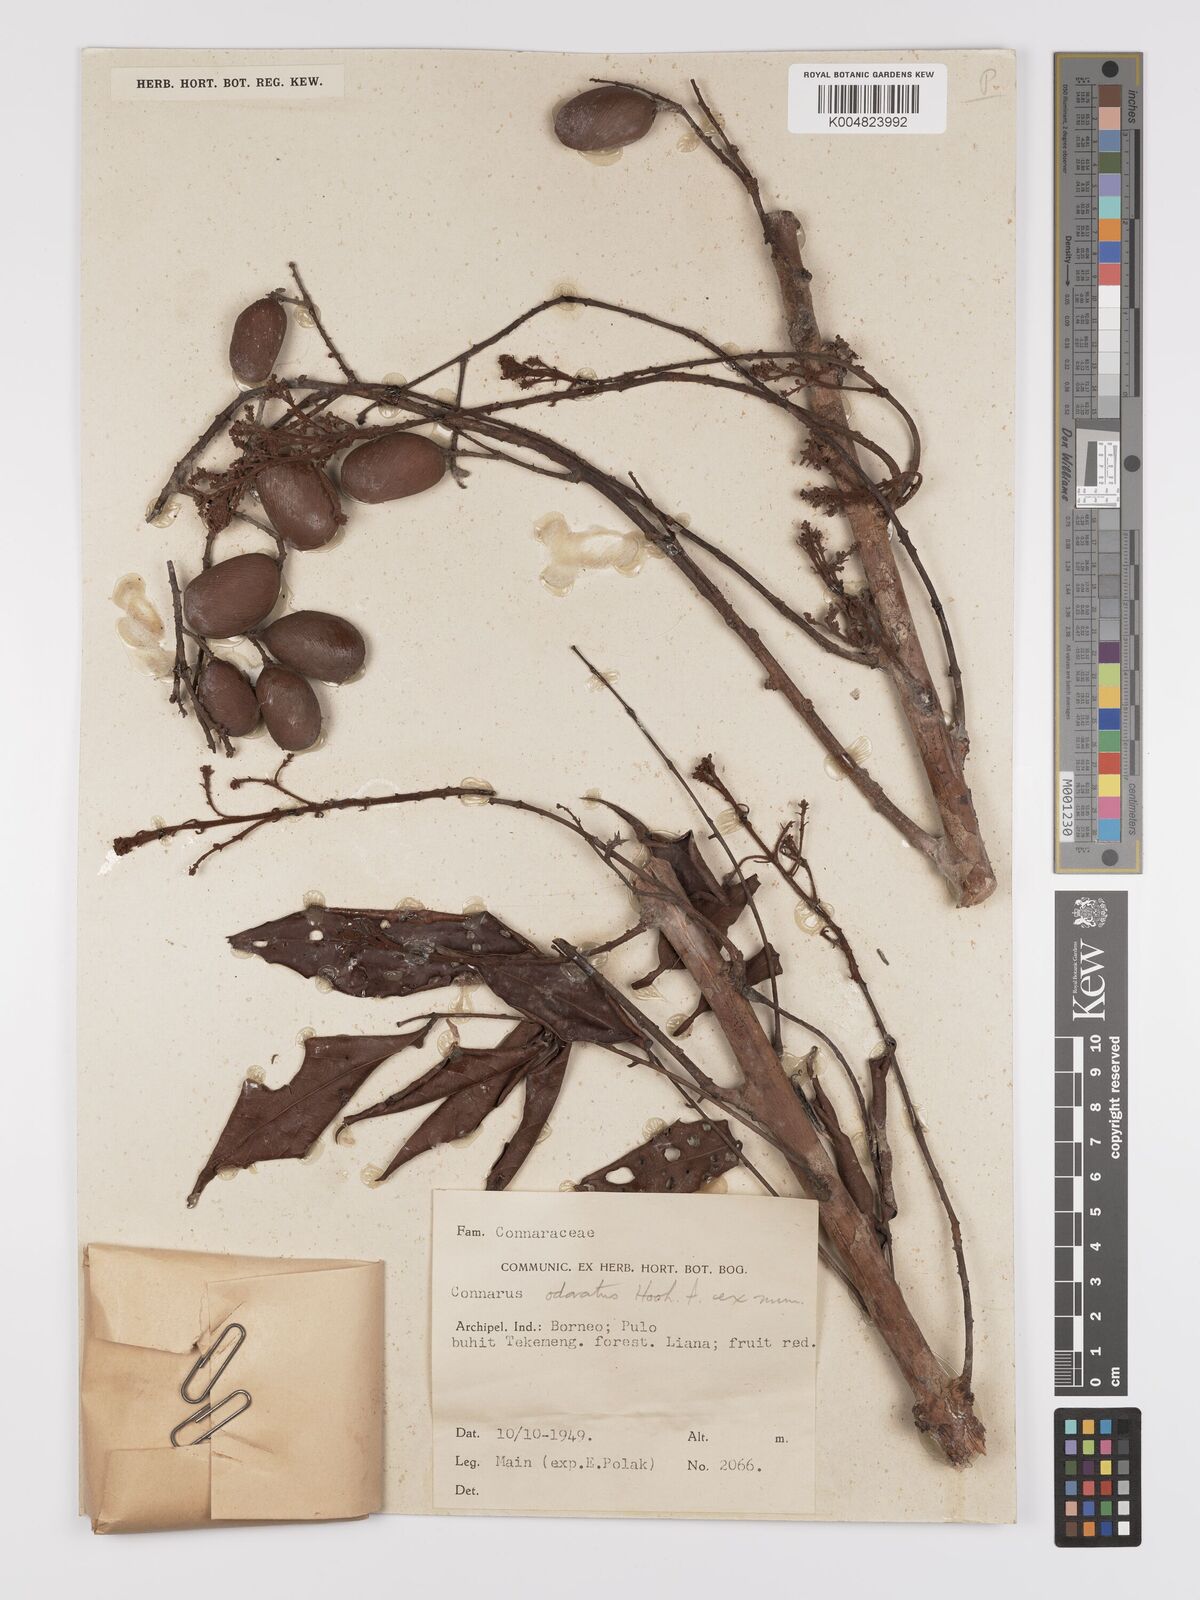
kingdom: Plantae
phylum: Tracheophyta
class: Magnoliopsida
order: Oxalidales
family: Connaraceae
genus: Connarus
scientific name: Connarus odoratus
